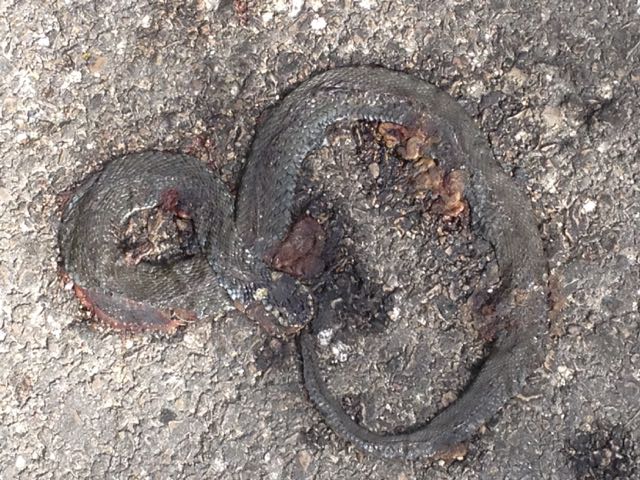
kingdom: Animalia
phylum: Chordata
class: Squamata
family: Colubridae
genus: Natrix
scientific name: Natrix natrix
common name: Grass snake
